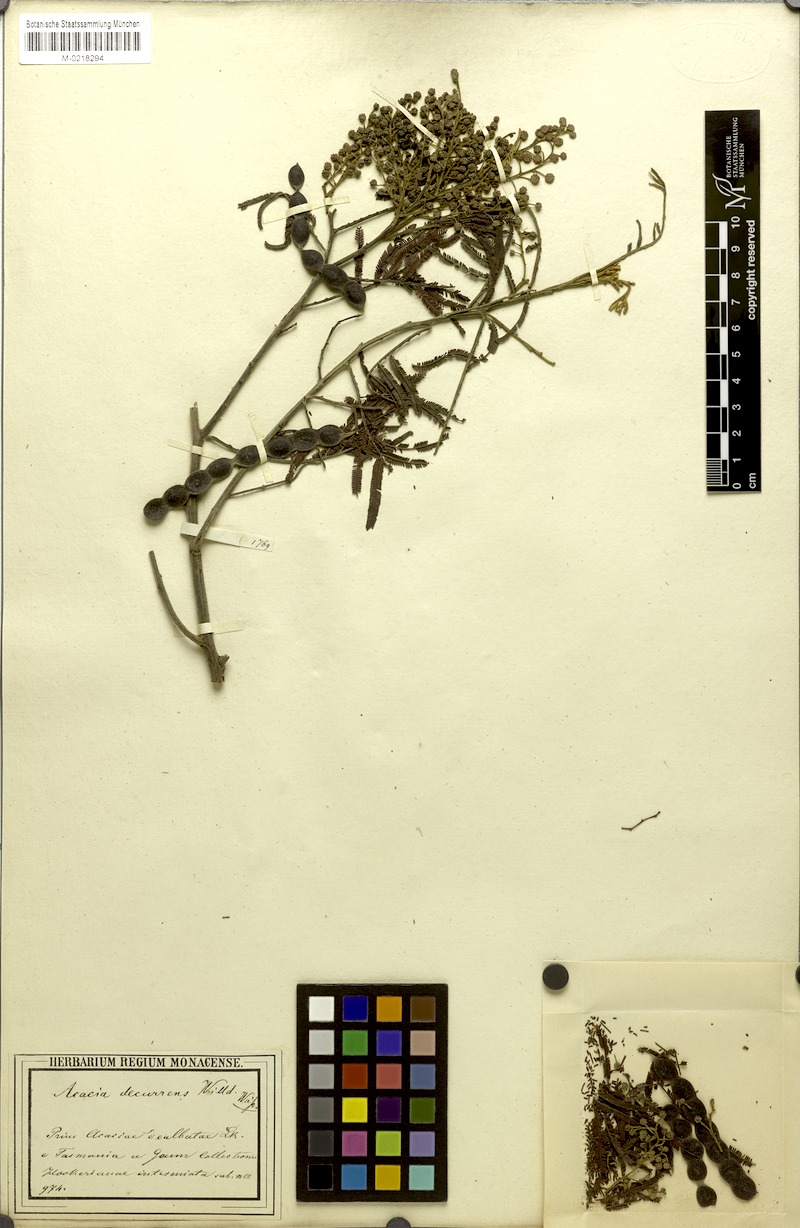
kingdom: Plantae
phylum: Tracheophyta
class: Magnoliopsida
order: Fabales
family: Fabaceae
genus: Acacia
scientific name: Acacia decurrens
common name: Green wattle
